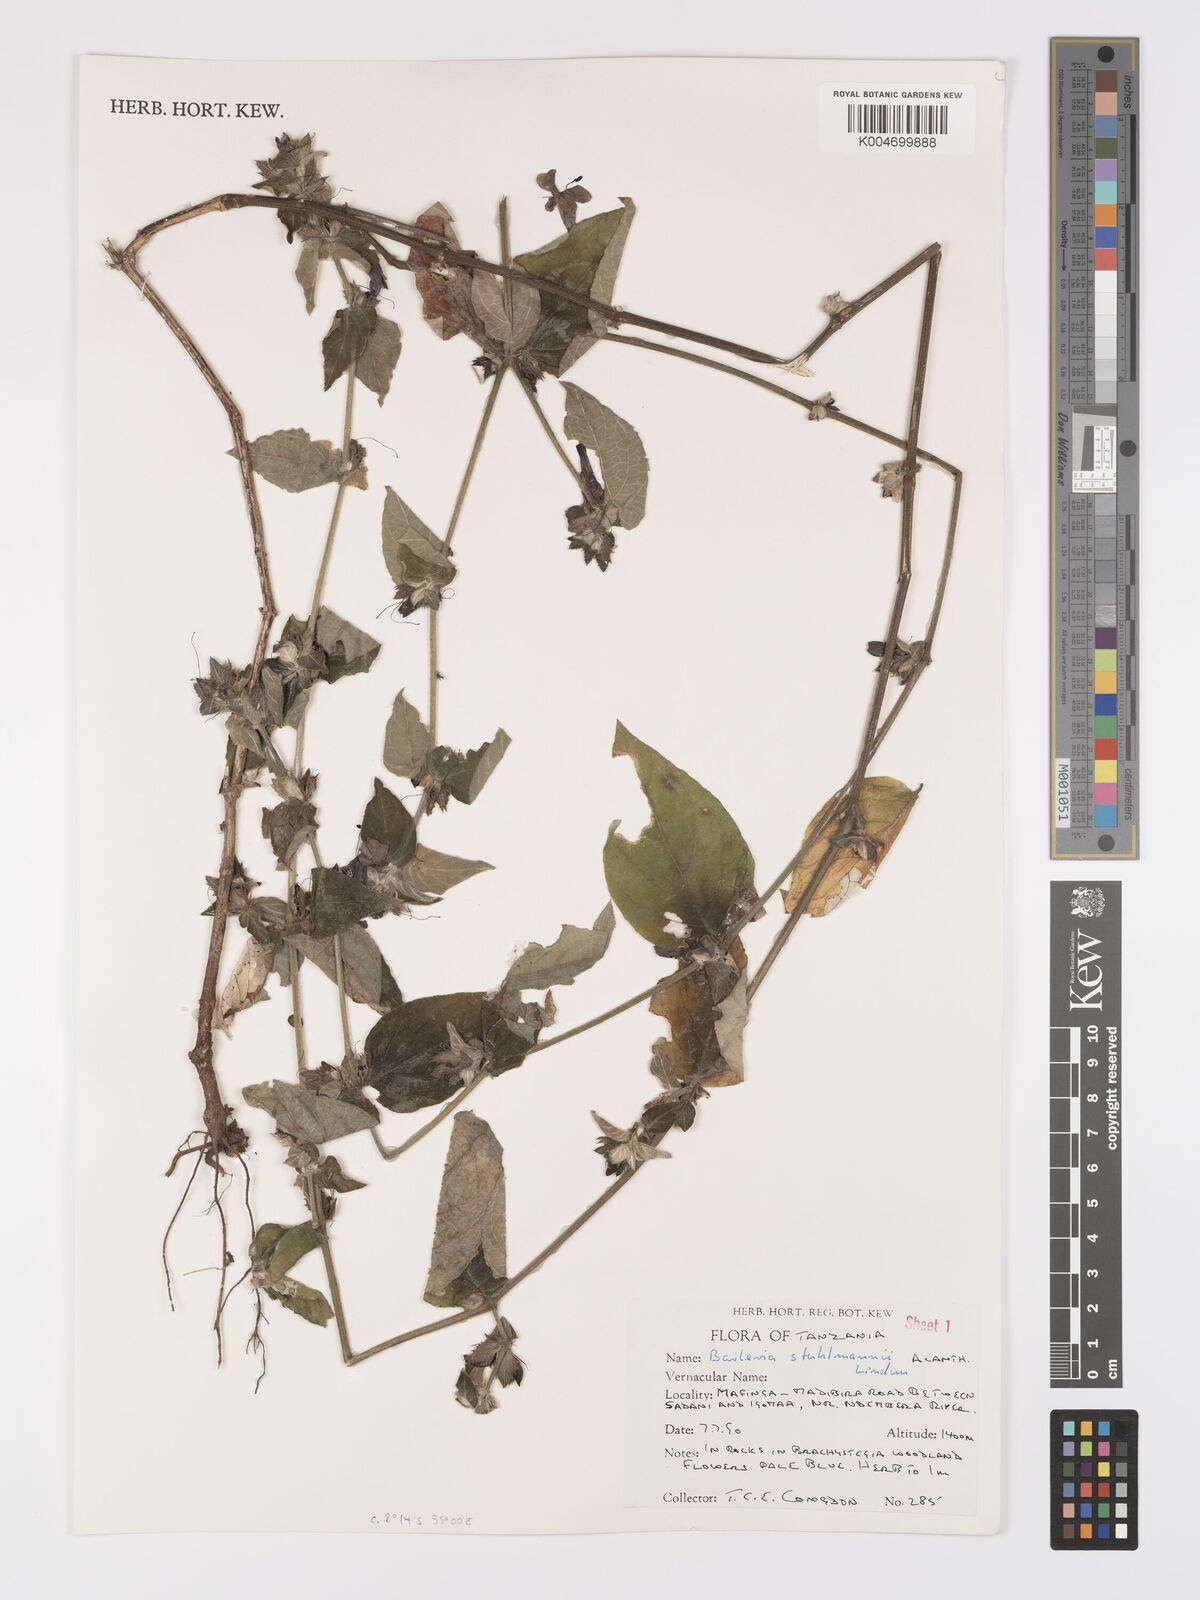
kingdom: Plantae
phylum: Tracheophyta
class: Magnoliopsida
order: Lamiales
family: Acanthaceae
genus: Barleria
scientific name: Barleria ventricosa
